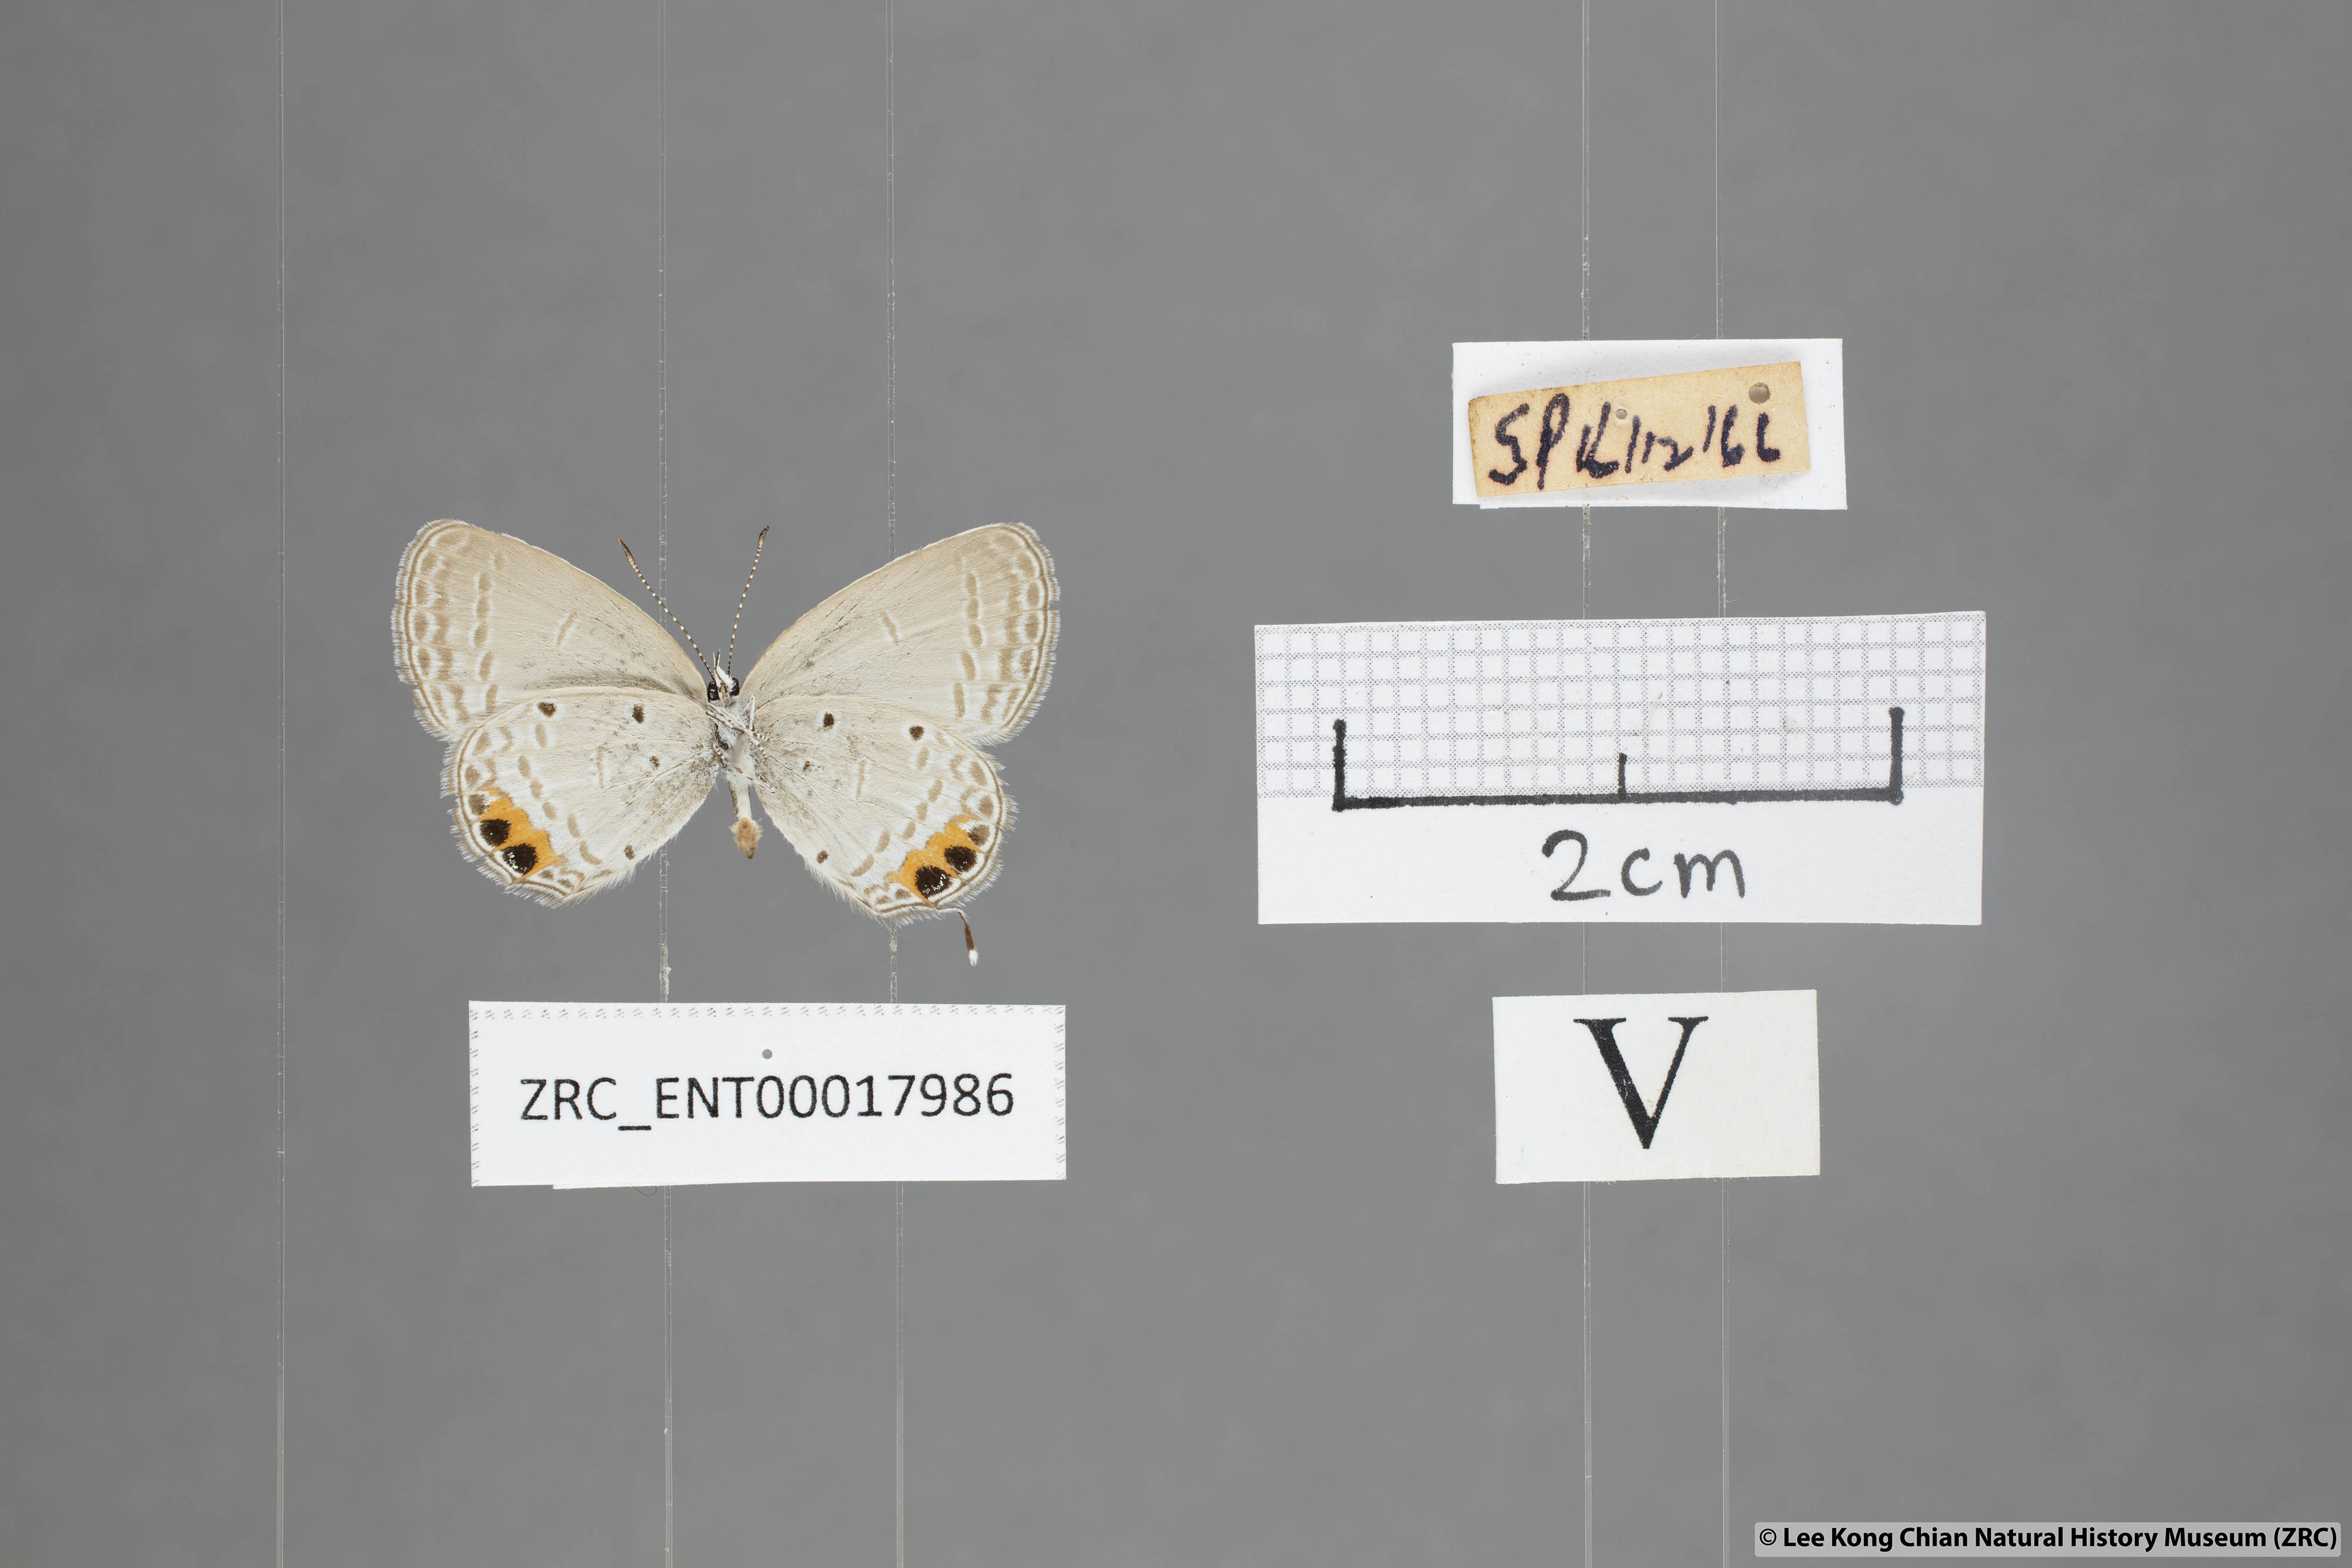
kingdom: Animalia
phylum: Arthropoda
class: Insecta
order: Lepidoptera
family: Lycaenidae
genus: Everes
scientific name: Everes lacturnus
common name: Orange-tipped pea-blue
